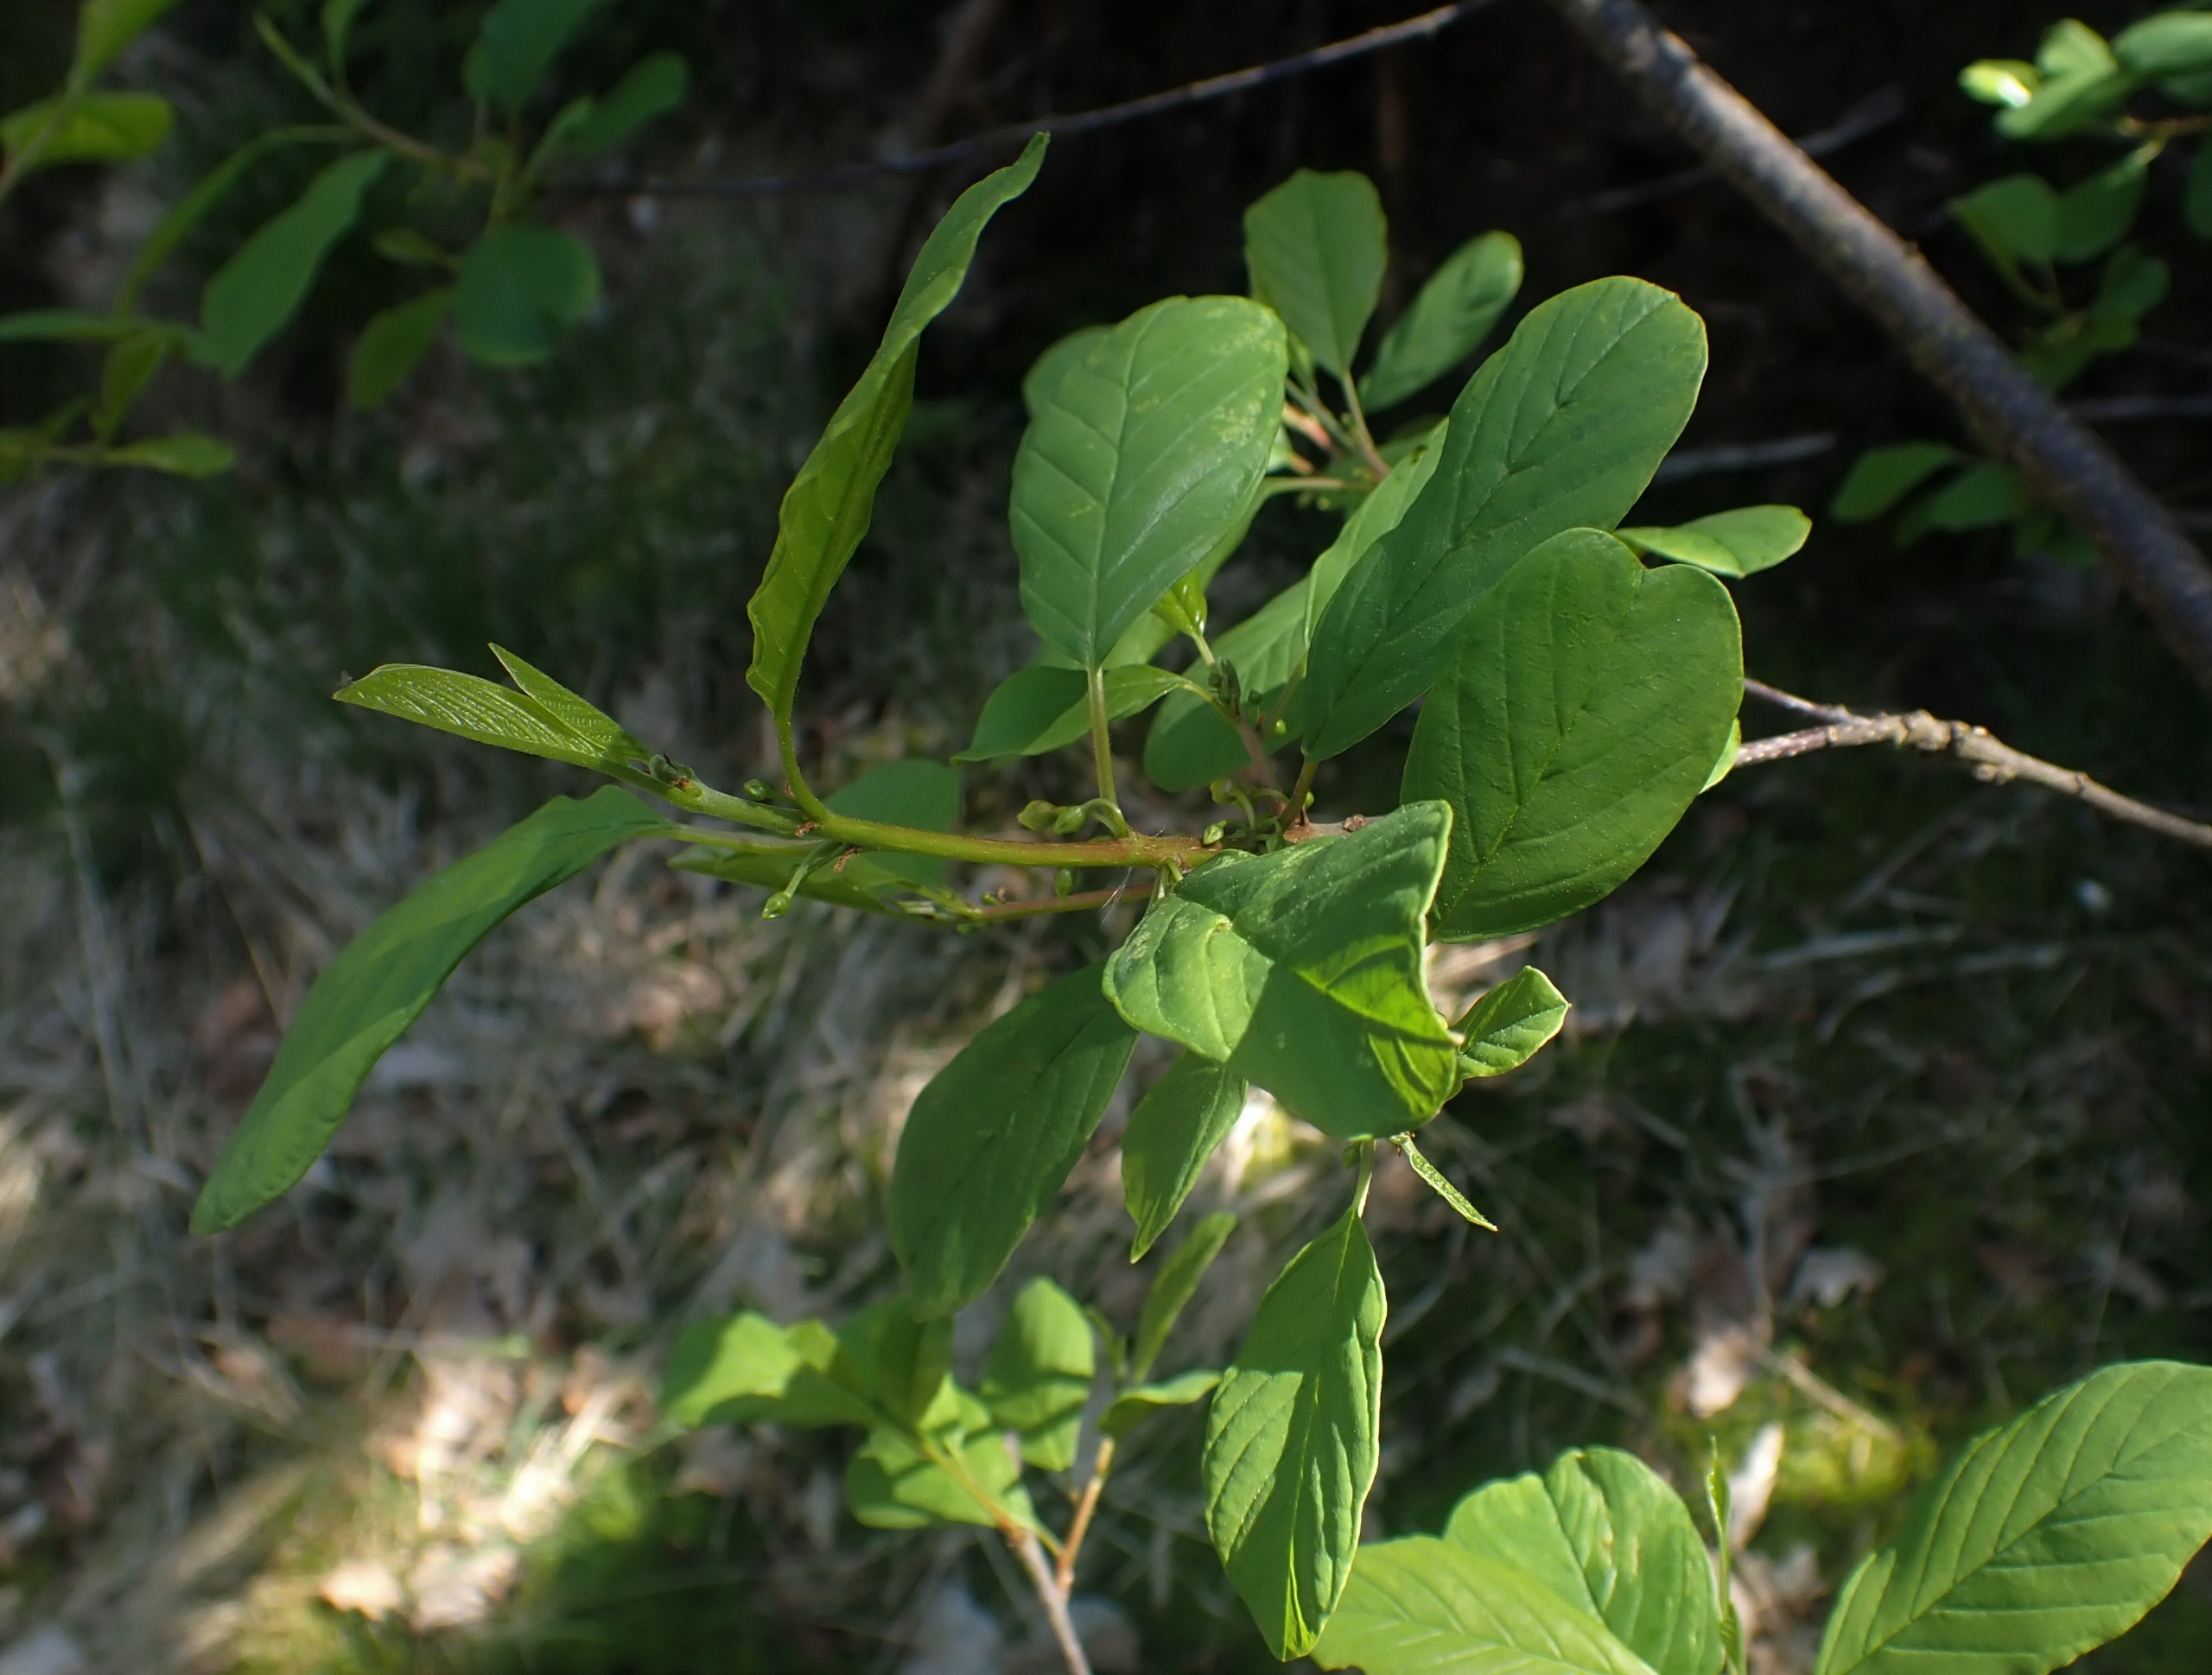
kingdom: Plantae
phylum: Tracheophyta
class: Magnoliopsida
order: Rosales
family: Rhamnaceae
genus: Frangula
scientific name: Frangula alnus
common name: Tørst
